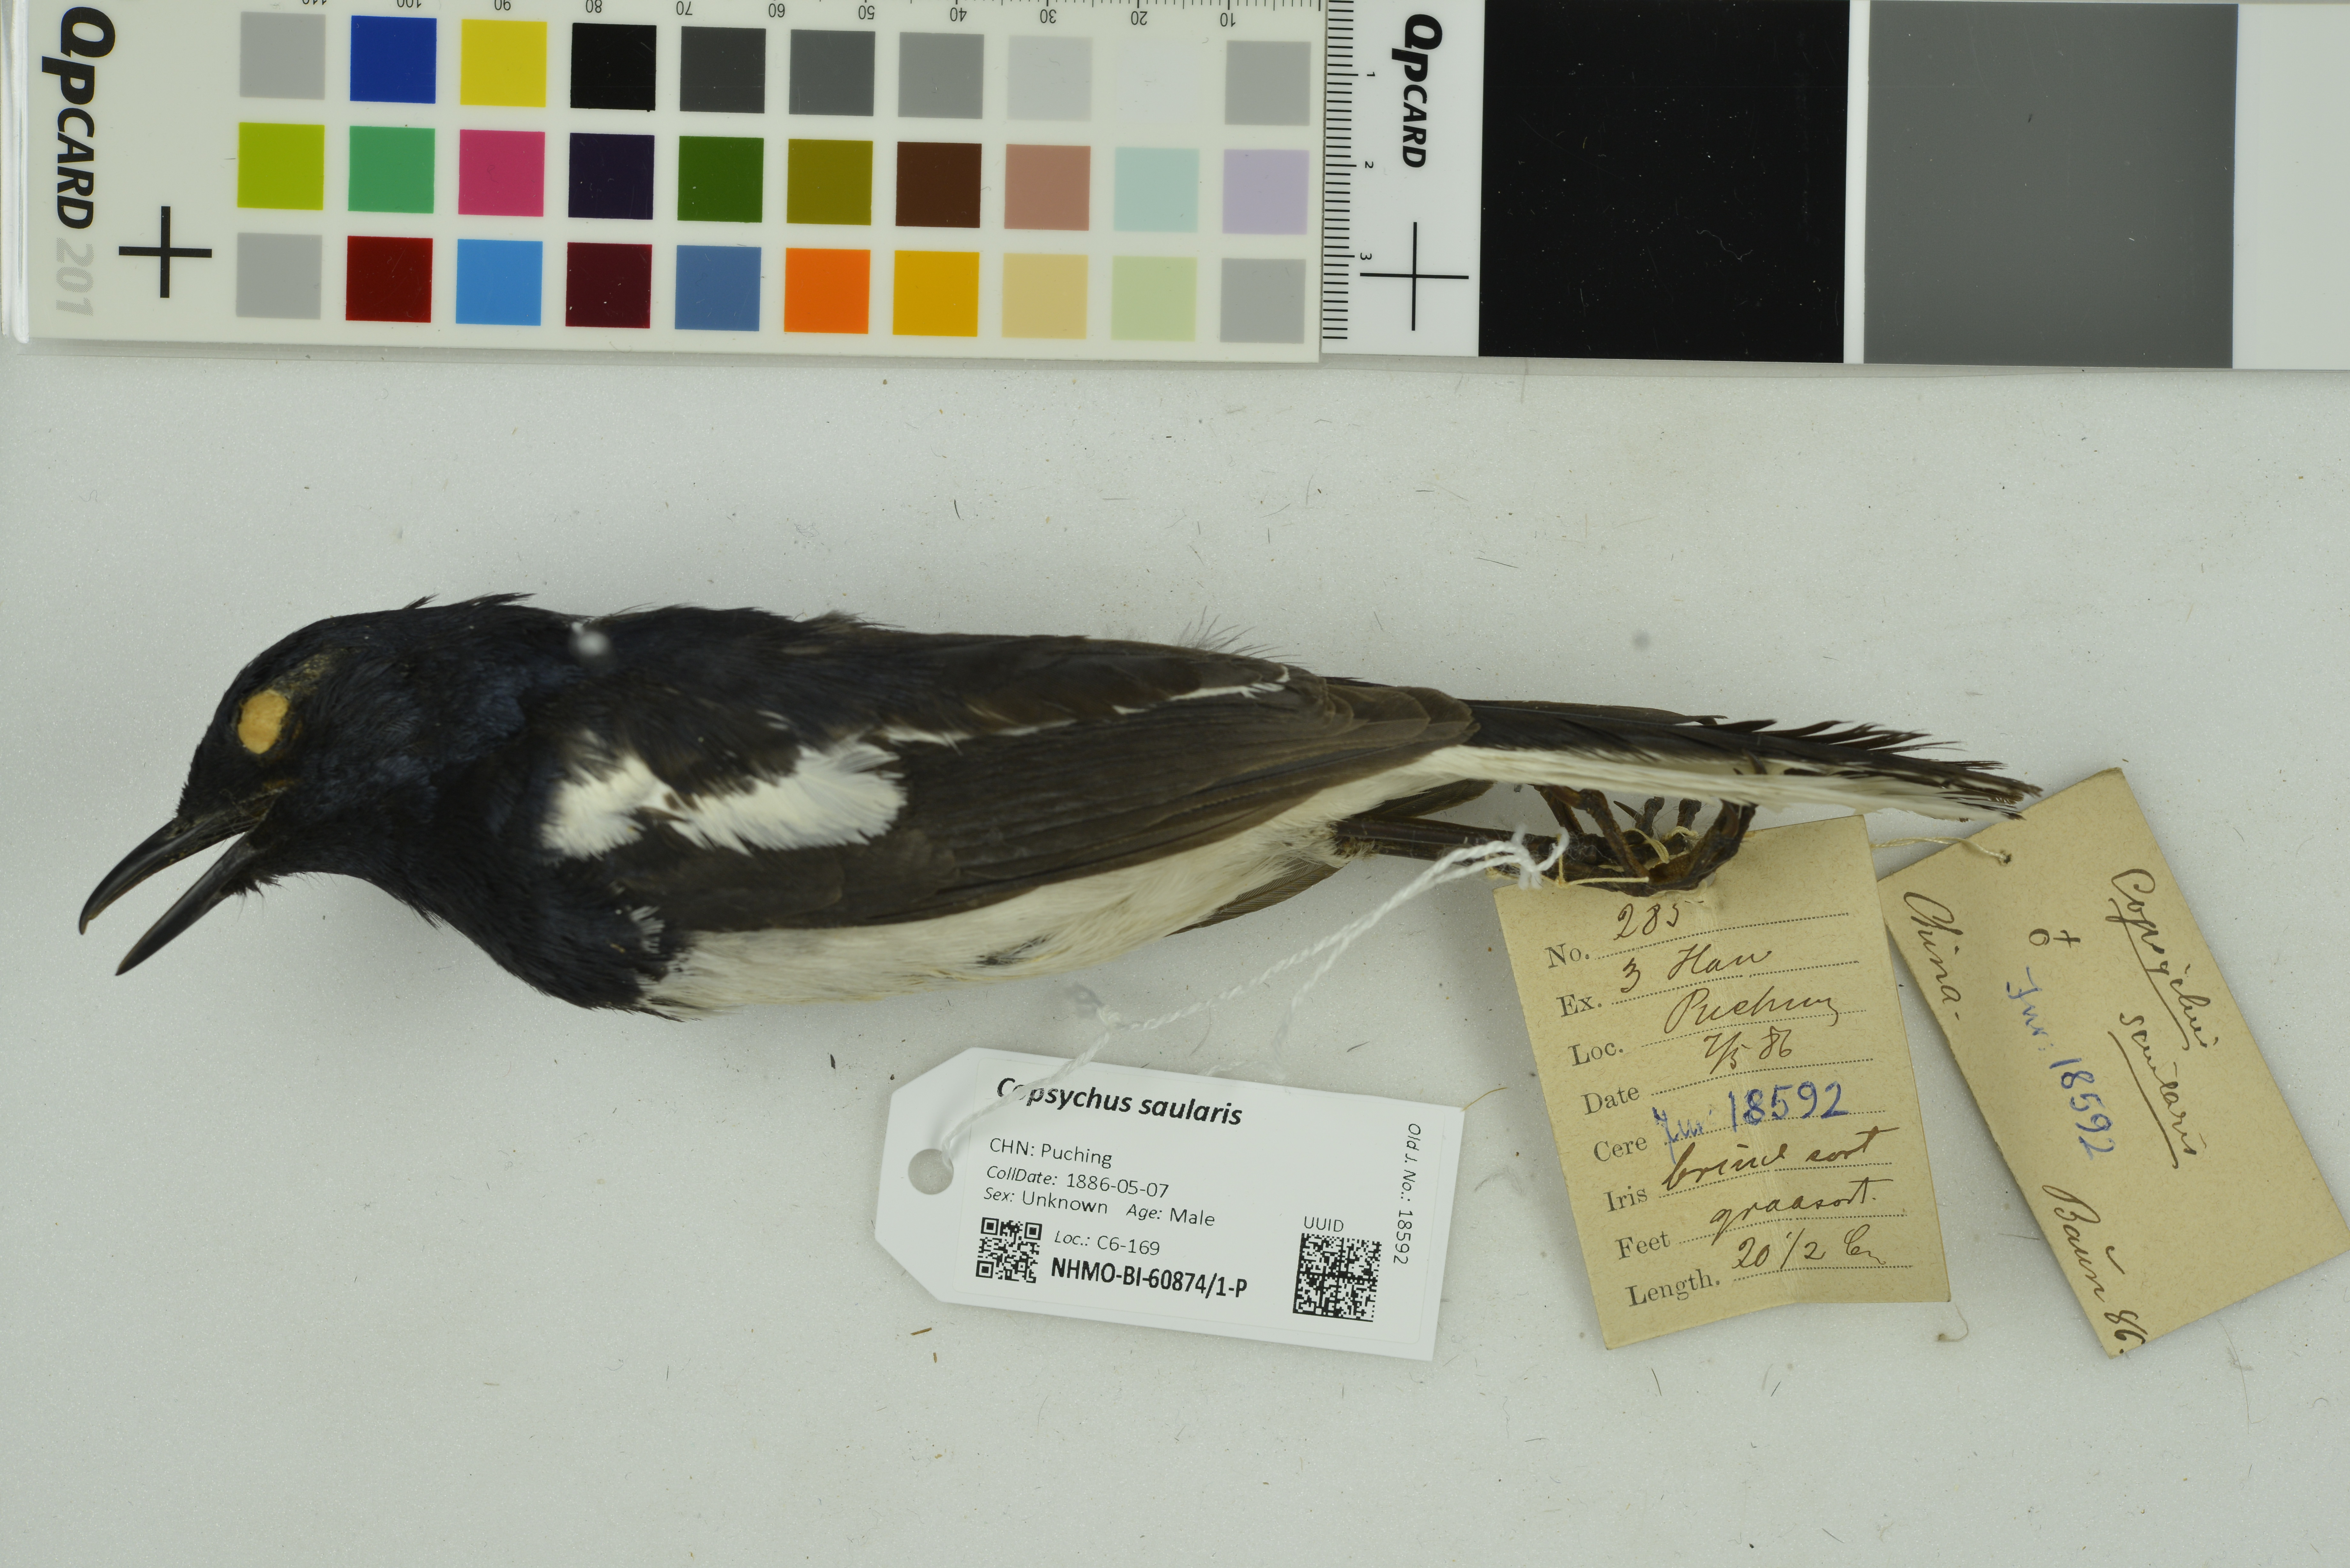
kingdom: Animalia
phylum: Chordata
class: Aves
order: Passeriformes
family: Muscicapidae
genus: Copsychus
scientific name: Copsychus saularis
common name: Oriental magpie-robin
